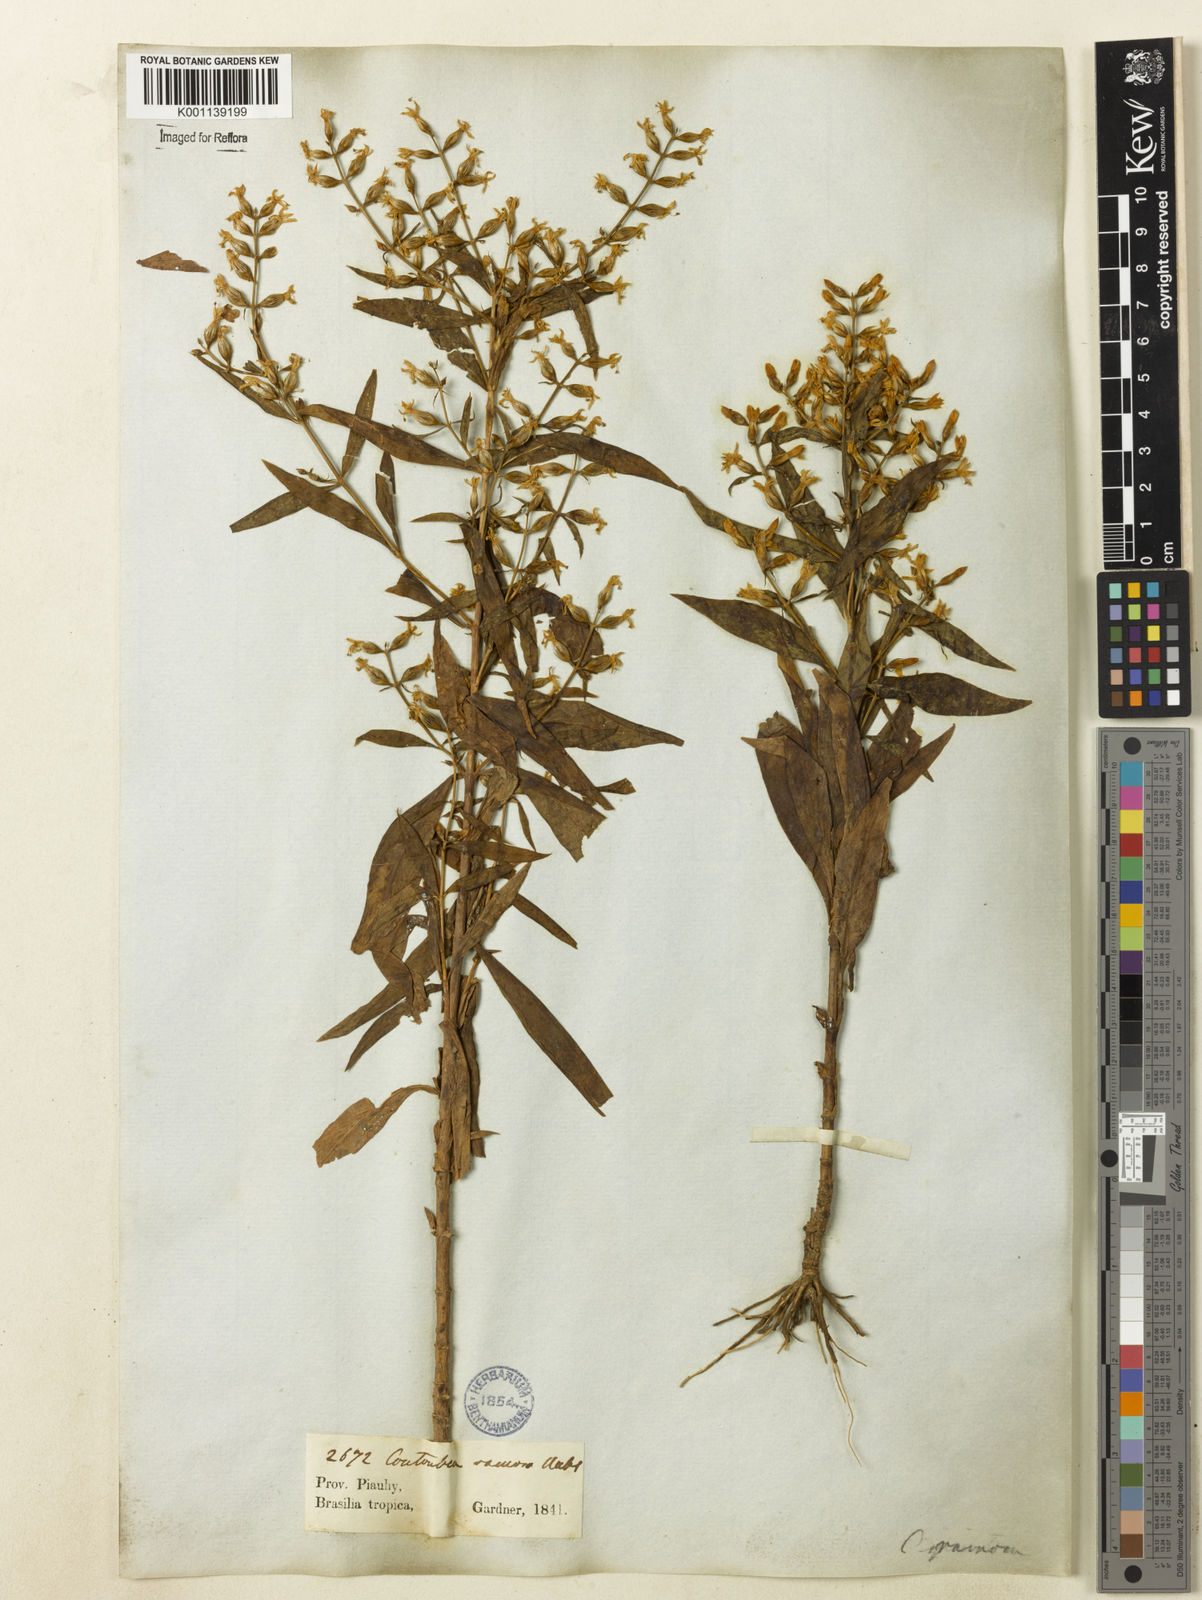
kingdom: Plantae
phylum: Tracheophyta
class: Magnoliopsida
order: Gentianales
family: Gentianaceae
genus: Coutoubea
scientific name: Coutoubea ramosa
